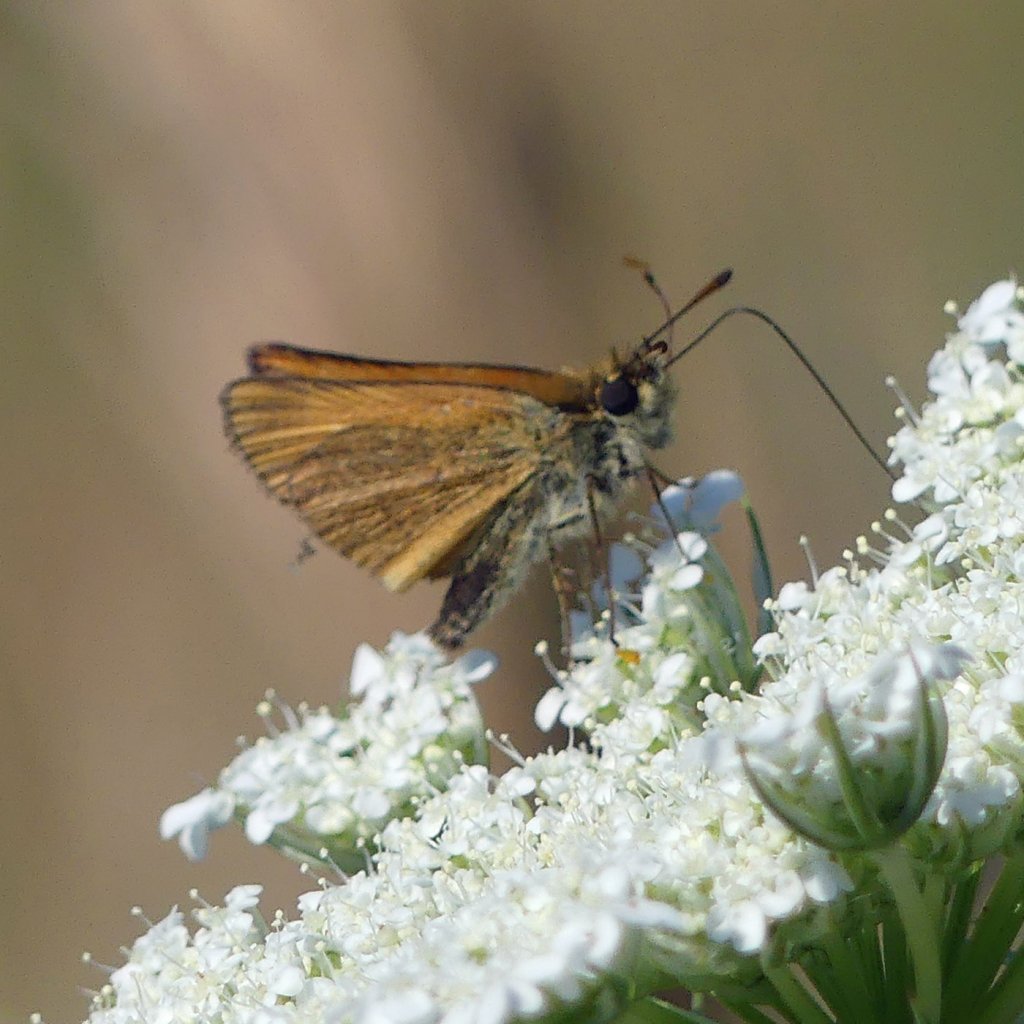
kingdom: Animalia
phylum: Arthropoda
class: Insecta
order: Lepidoptera
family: Hesperiidae
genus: Thymelicus
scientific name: Thymelicus lineola
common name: European Skipper
